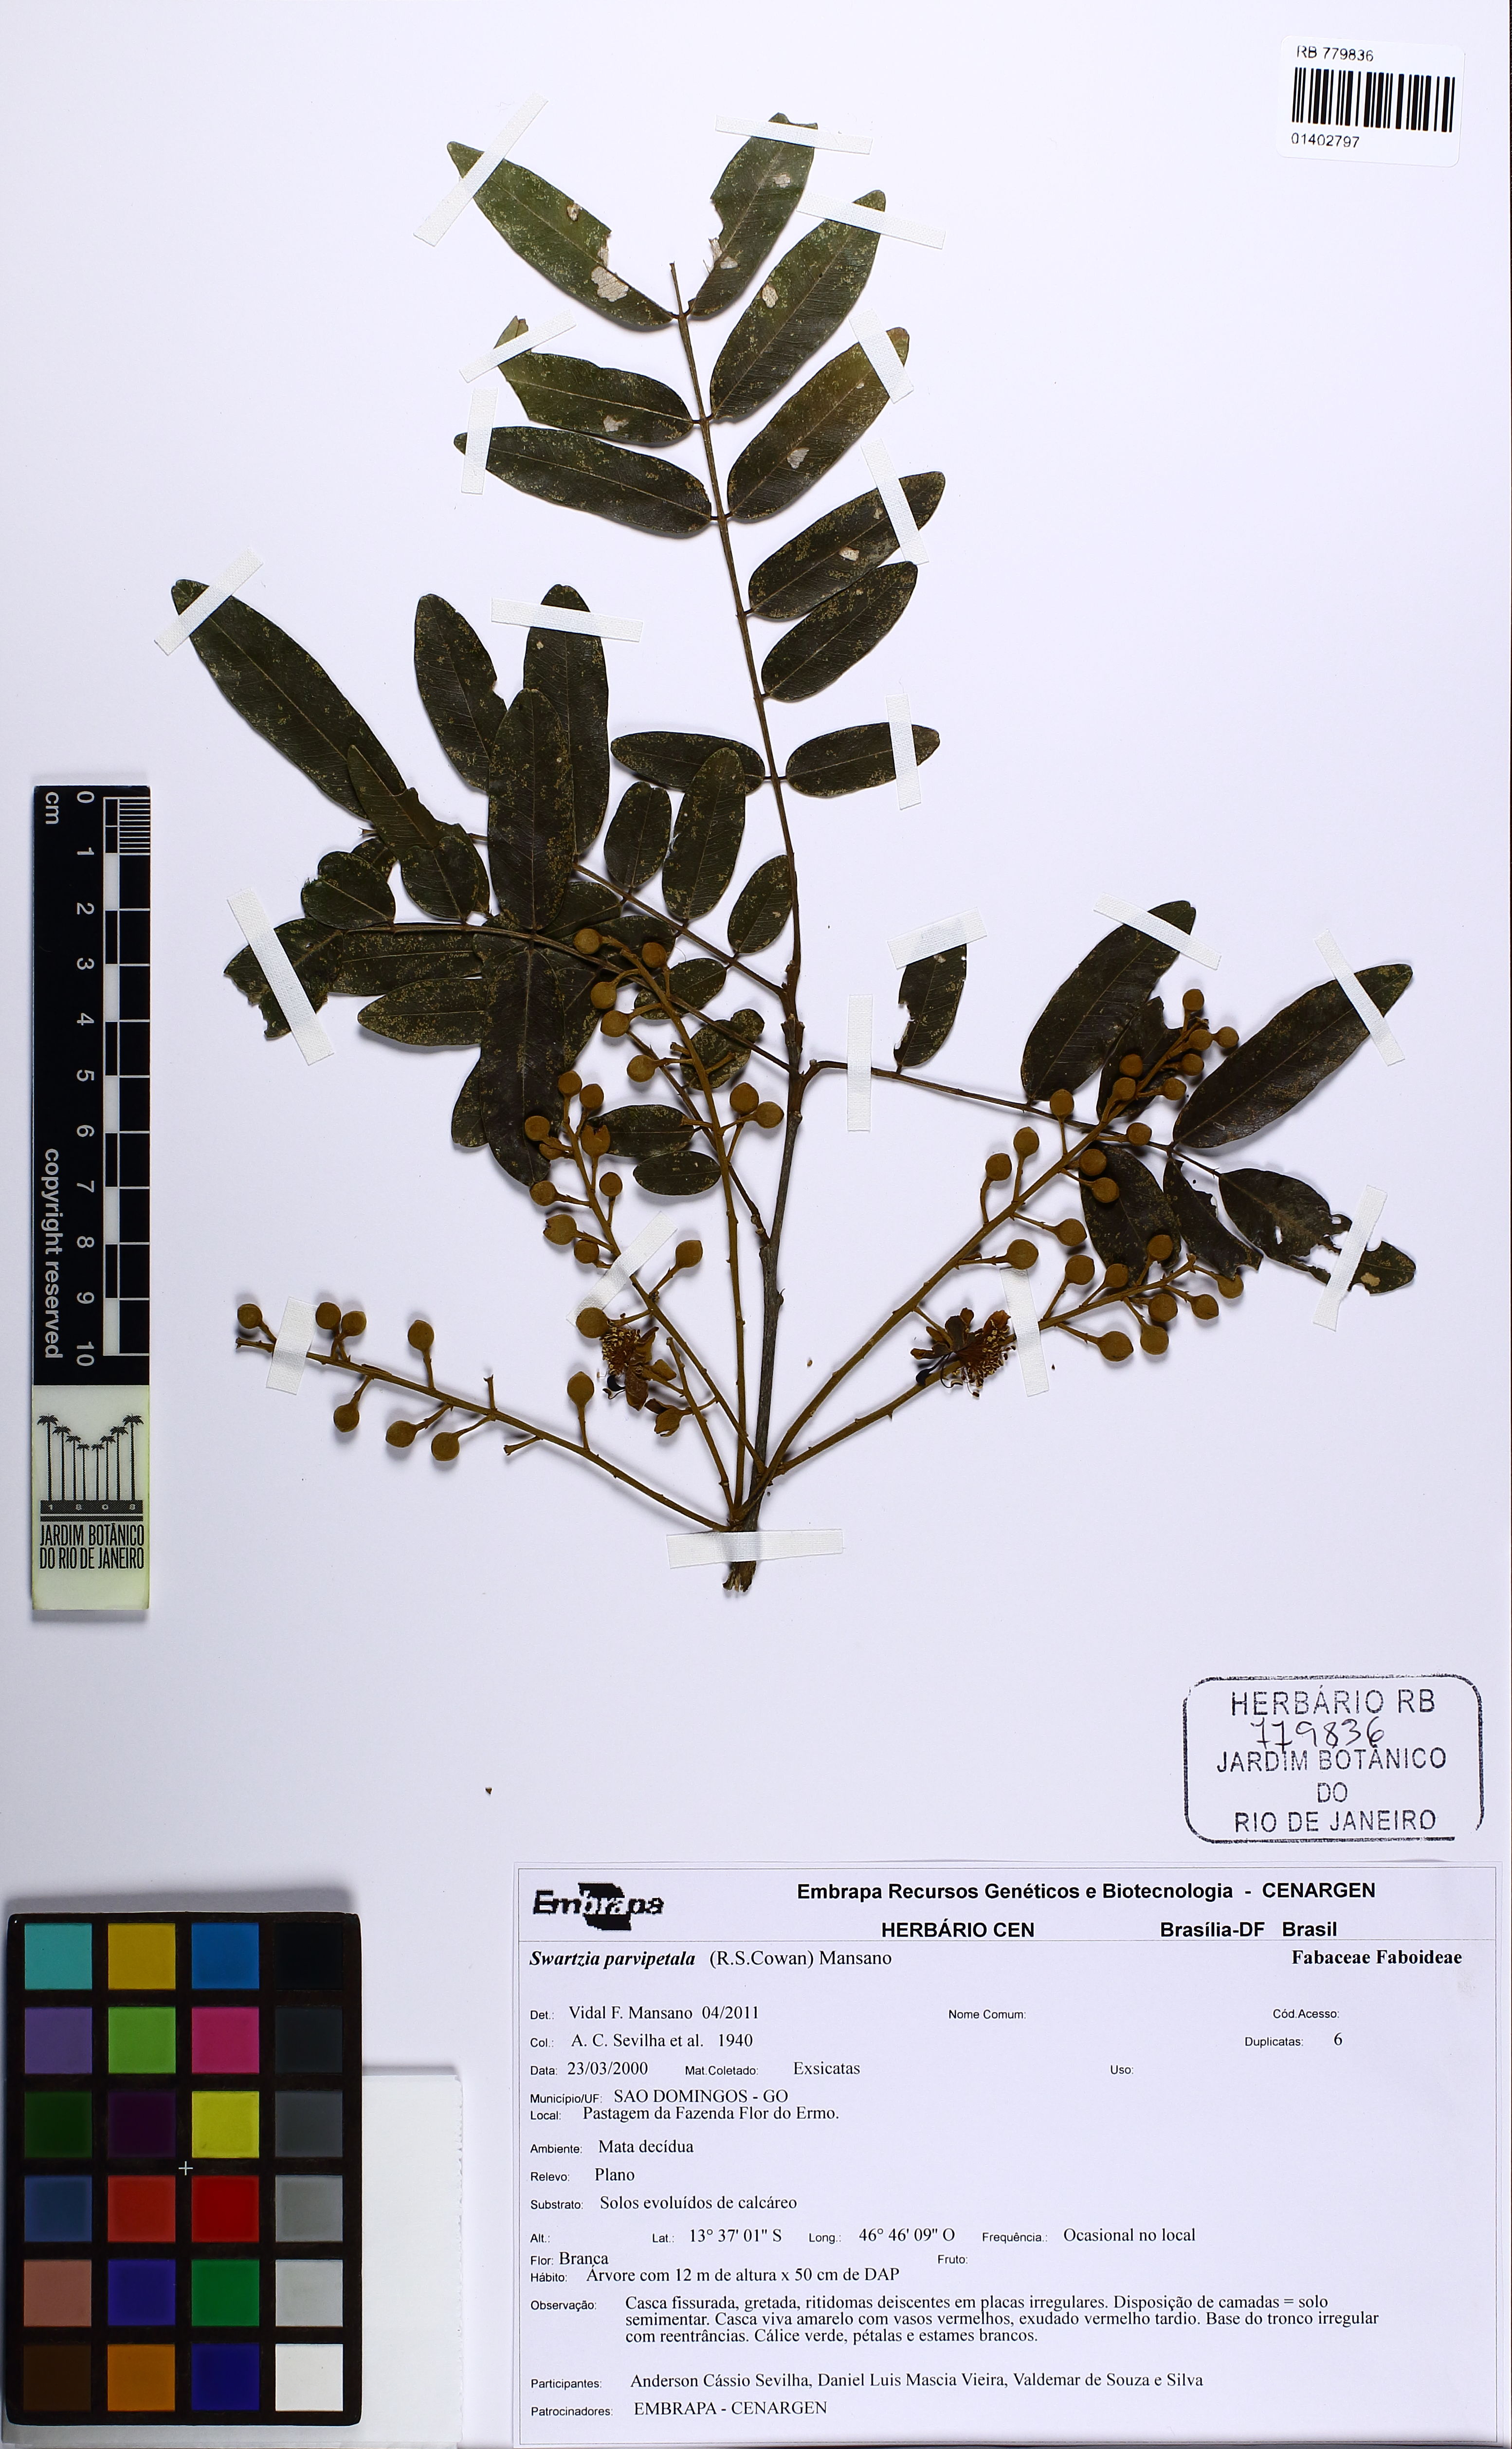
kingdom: Plantae
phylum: Tracheophyta
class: Magnoliopsida
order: Fabales
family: Fabaceae
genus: Swartzia
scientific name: Swartzia parvipetala
